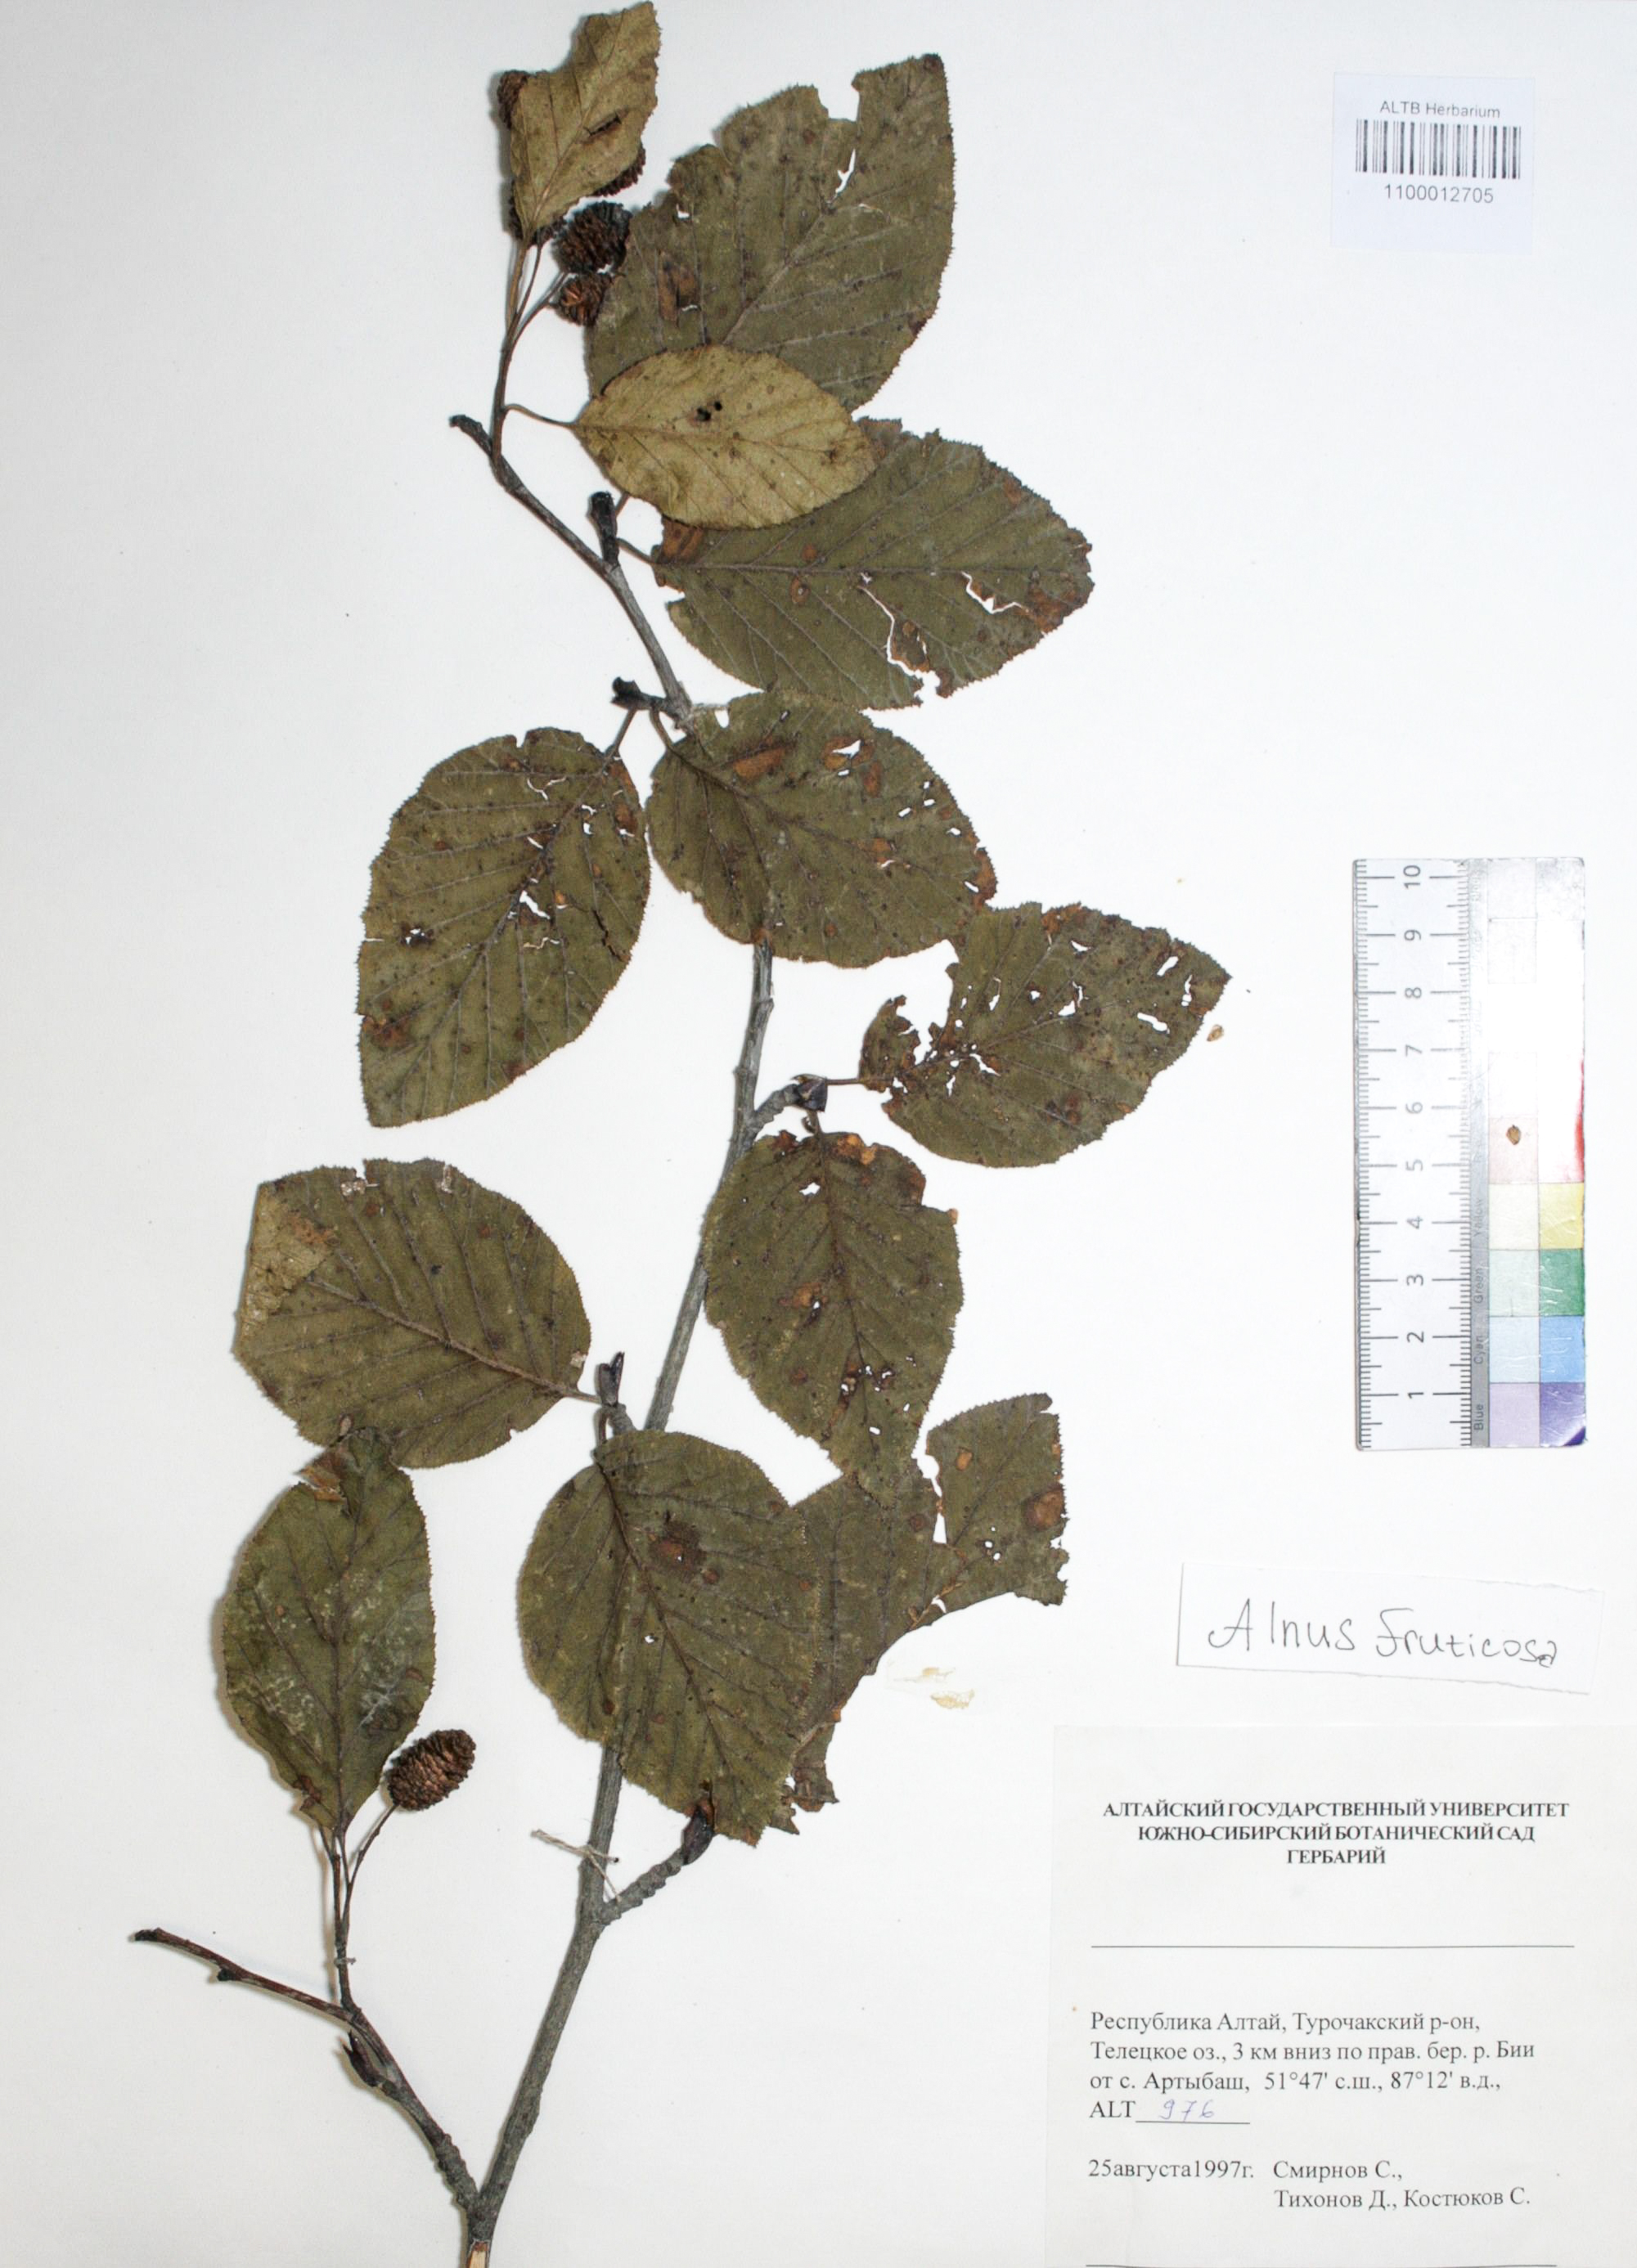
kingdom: Plantae
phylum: Tracheophyta
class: Magnoliopsida
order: Fagales
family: Betulaceae
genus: Alnus
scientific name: Alnus alnobetula
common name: Green alder
